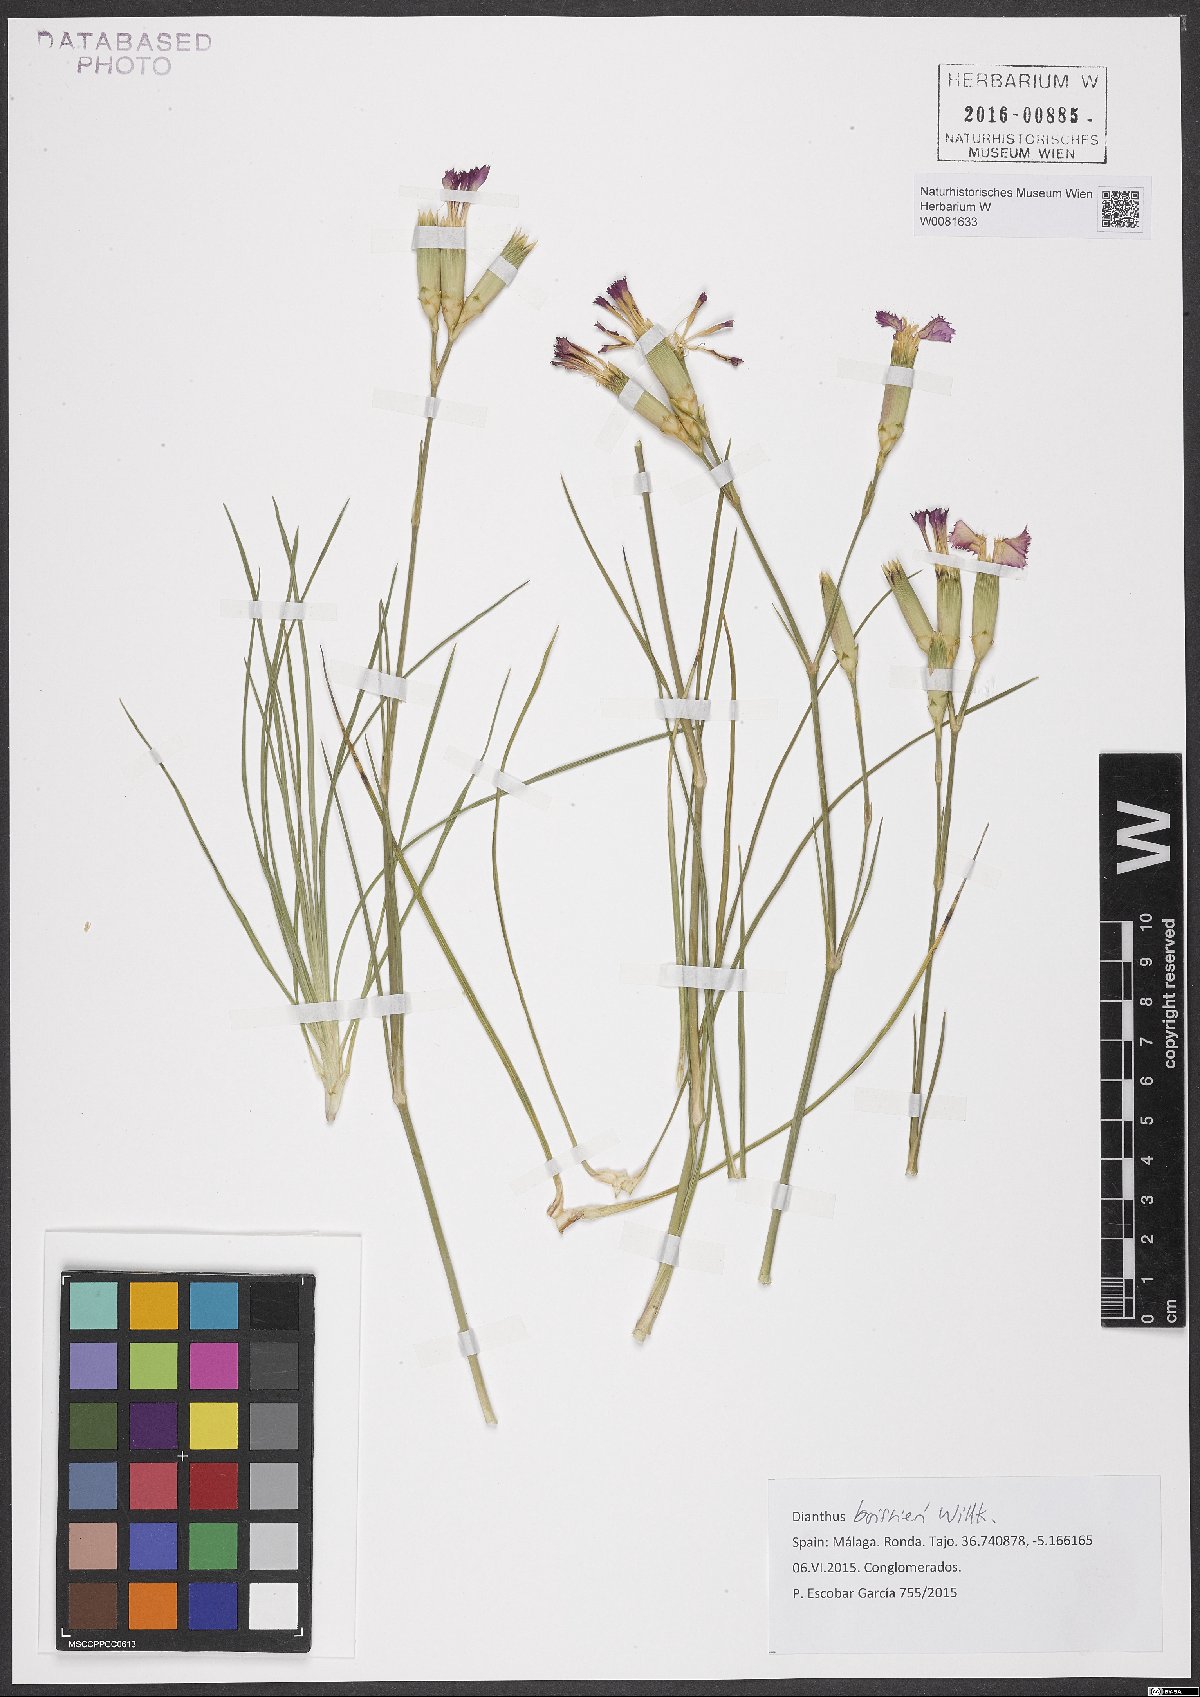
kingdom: Plantae
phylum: Tracheophyta
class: Magnoliopsida
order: Caryophyllales
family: Caryophyllaceae
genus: Dianthus
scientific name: Dianthus sylvestris
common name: Wood pink
